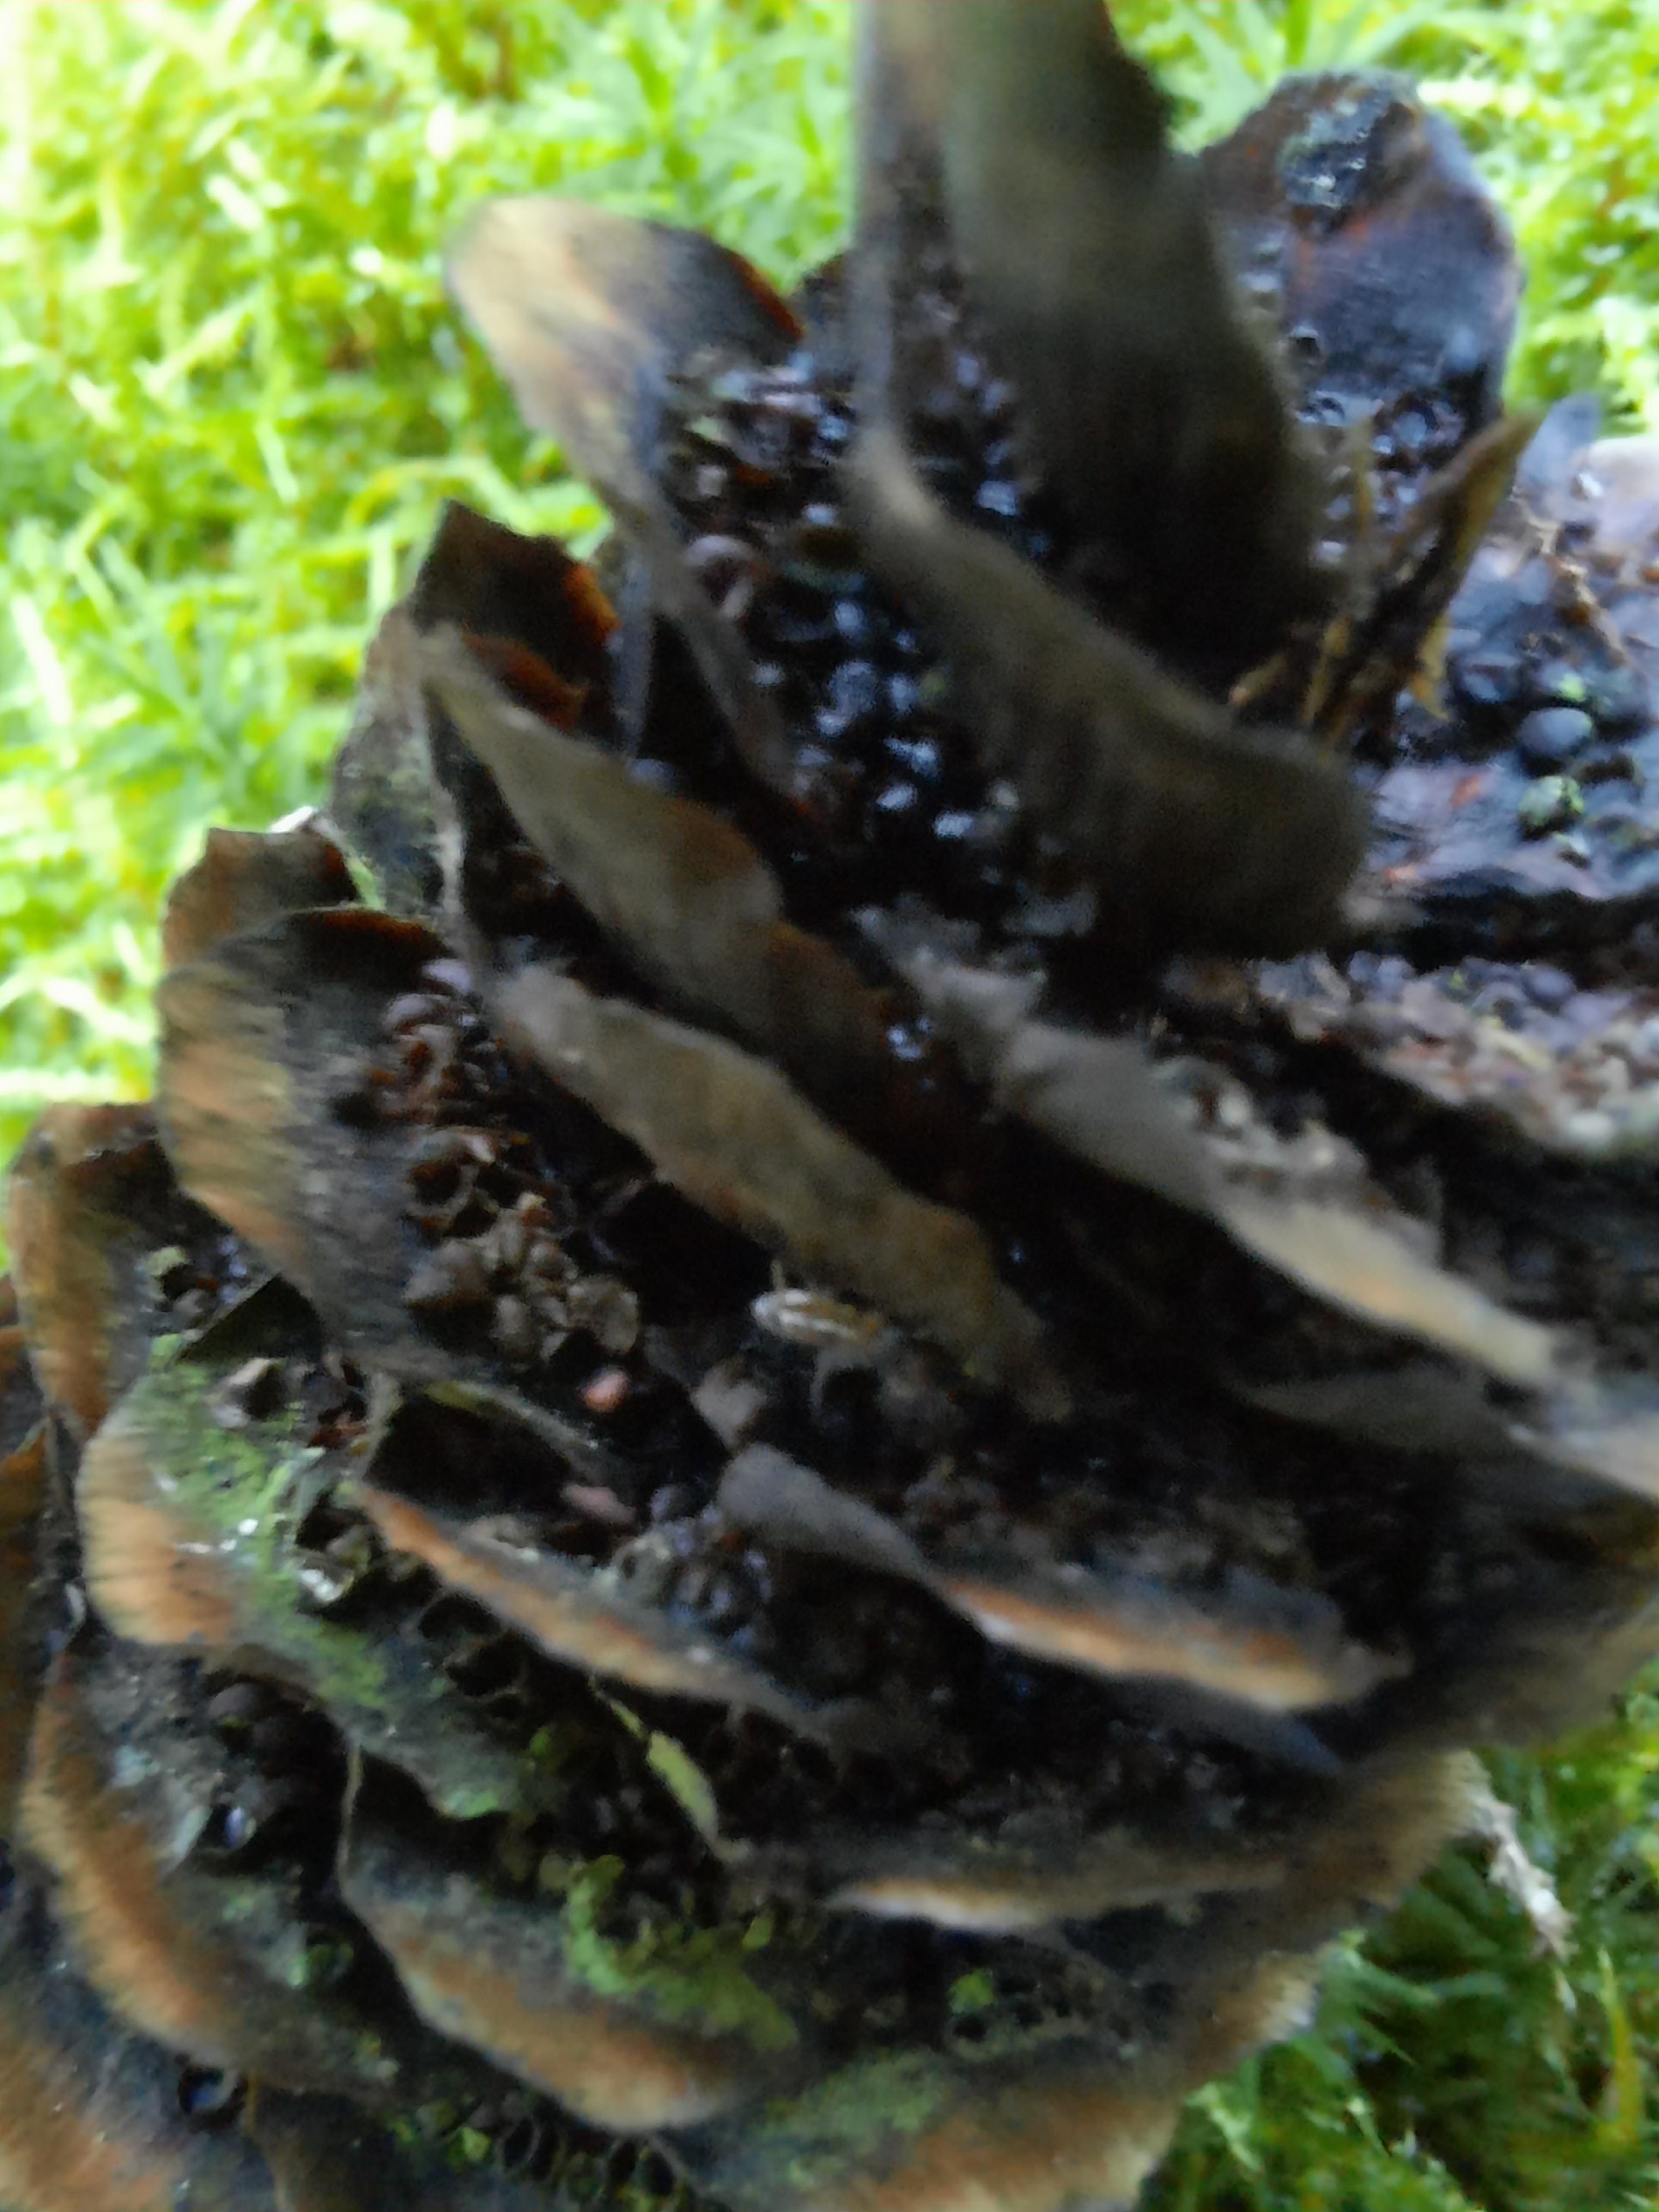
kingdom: Fungi
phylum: Basidiomycota
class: Pucciniomycetes
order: Pucciniales
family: Pucciniastraceae
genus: Thekopsora
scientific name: Thekopsora areolata
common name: grankogle-nålerust
